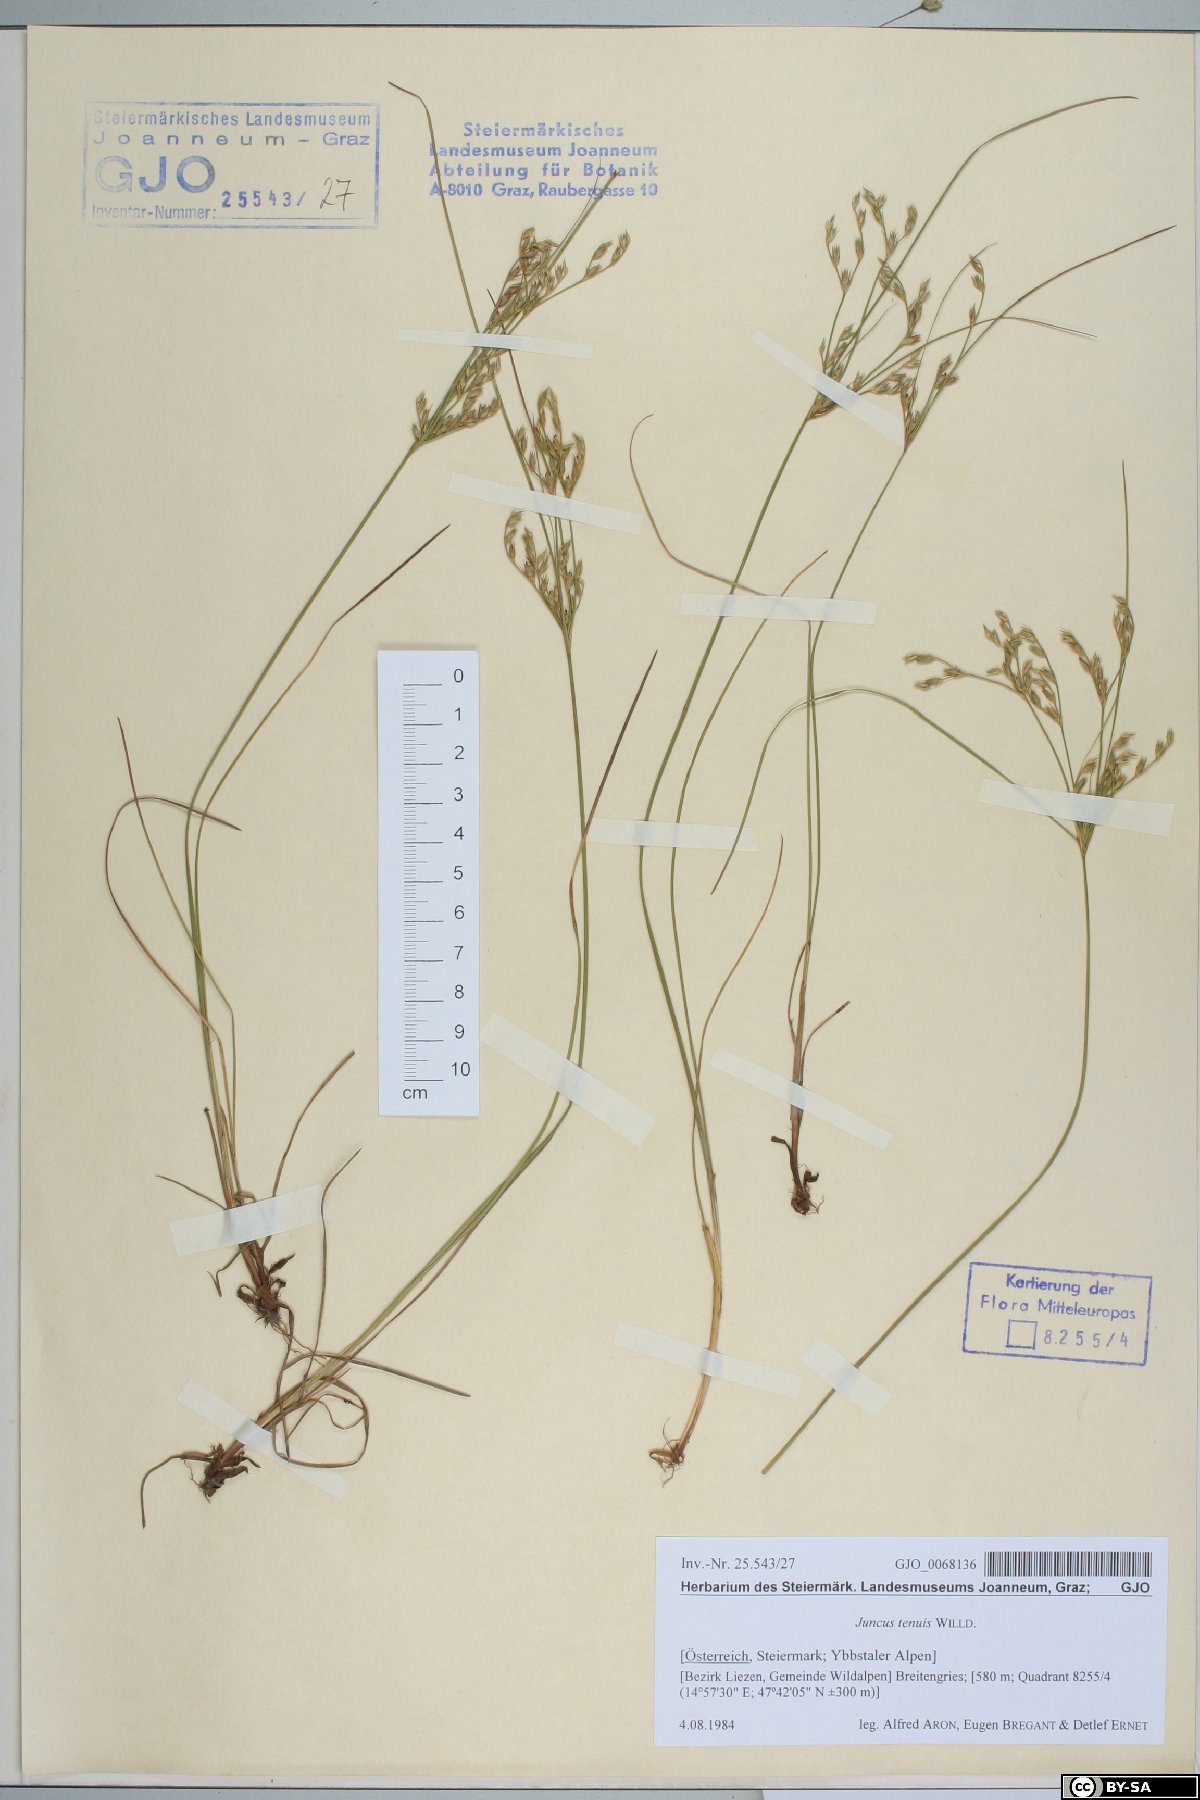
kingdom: Plantae
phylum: Tracheophyta
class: Liliopsida
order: Poales
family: Juncaceae
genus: Juncus
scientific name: Juncus tenuis
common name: Slender rush
